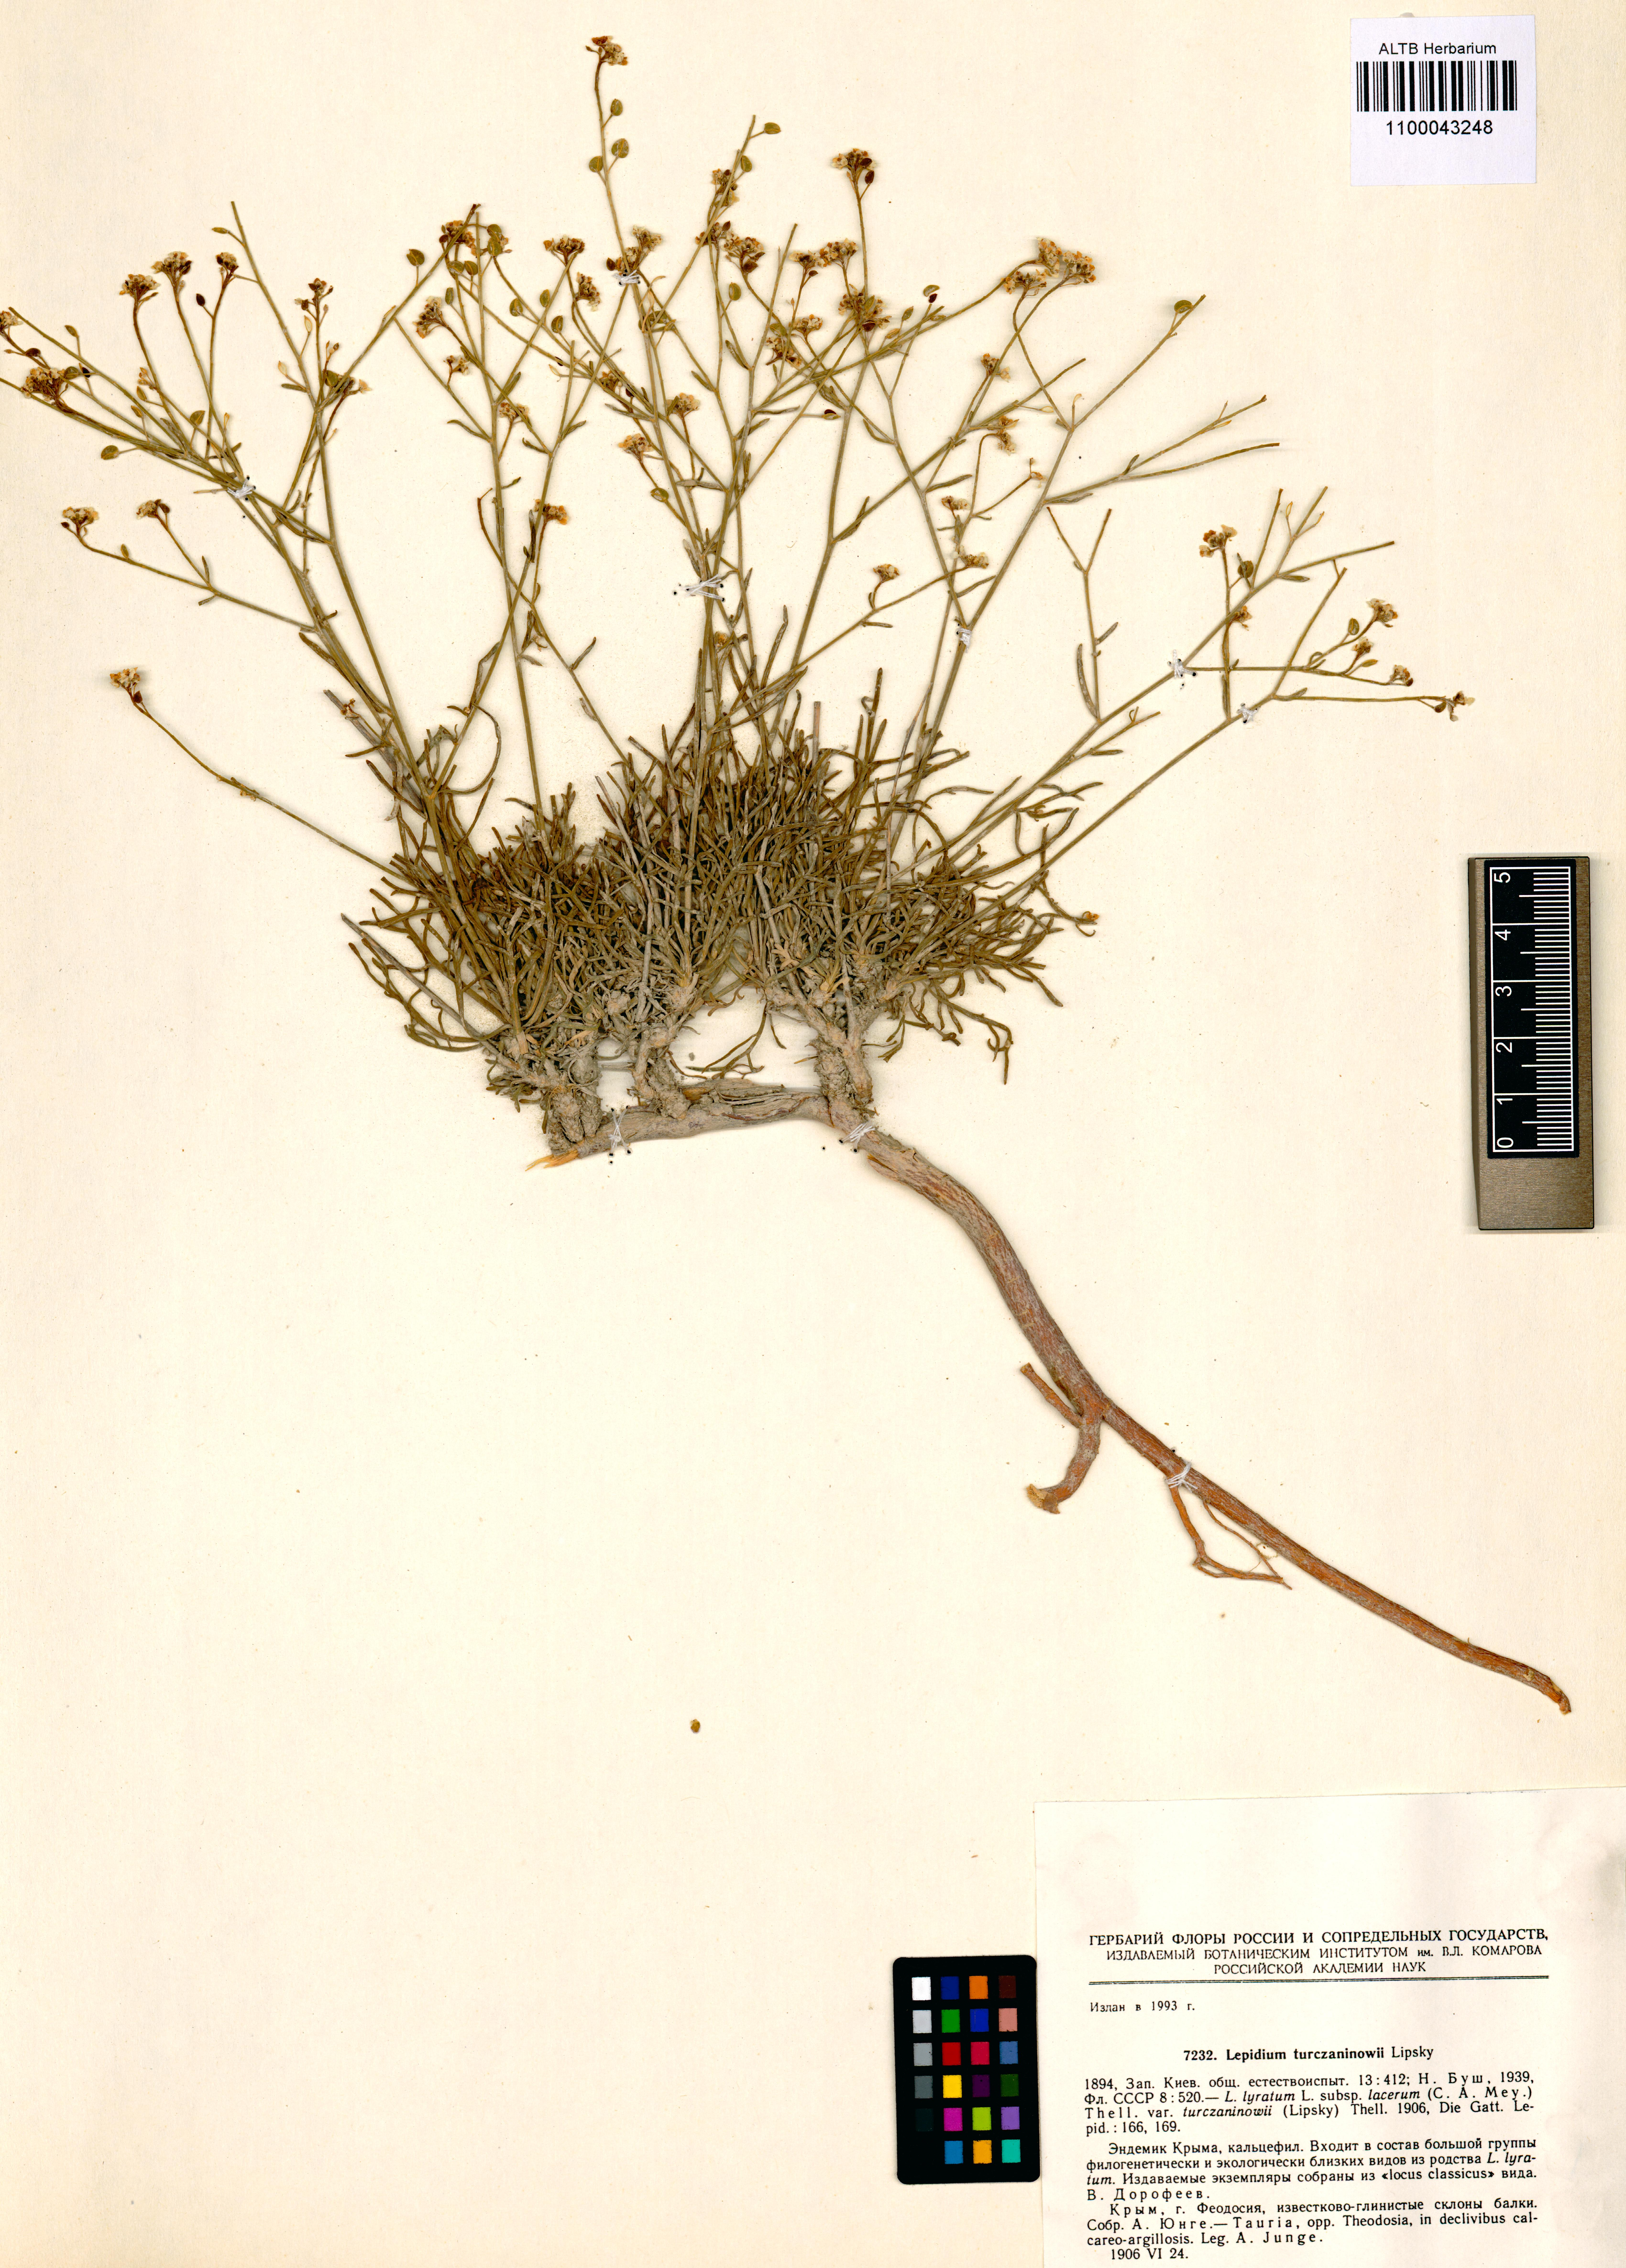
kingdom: Plantae
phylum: Tracheophyta
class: Magnoliopsida
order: Brassicales
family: Brassicaceae
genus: Lepidium
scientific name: Lepidium meyeri
